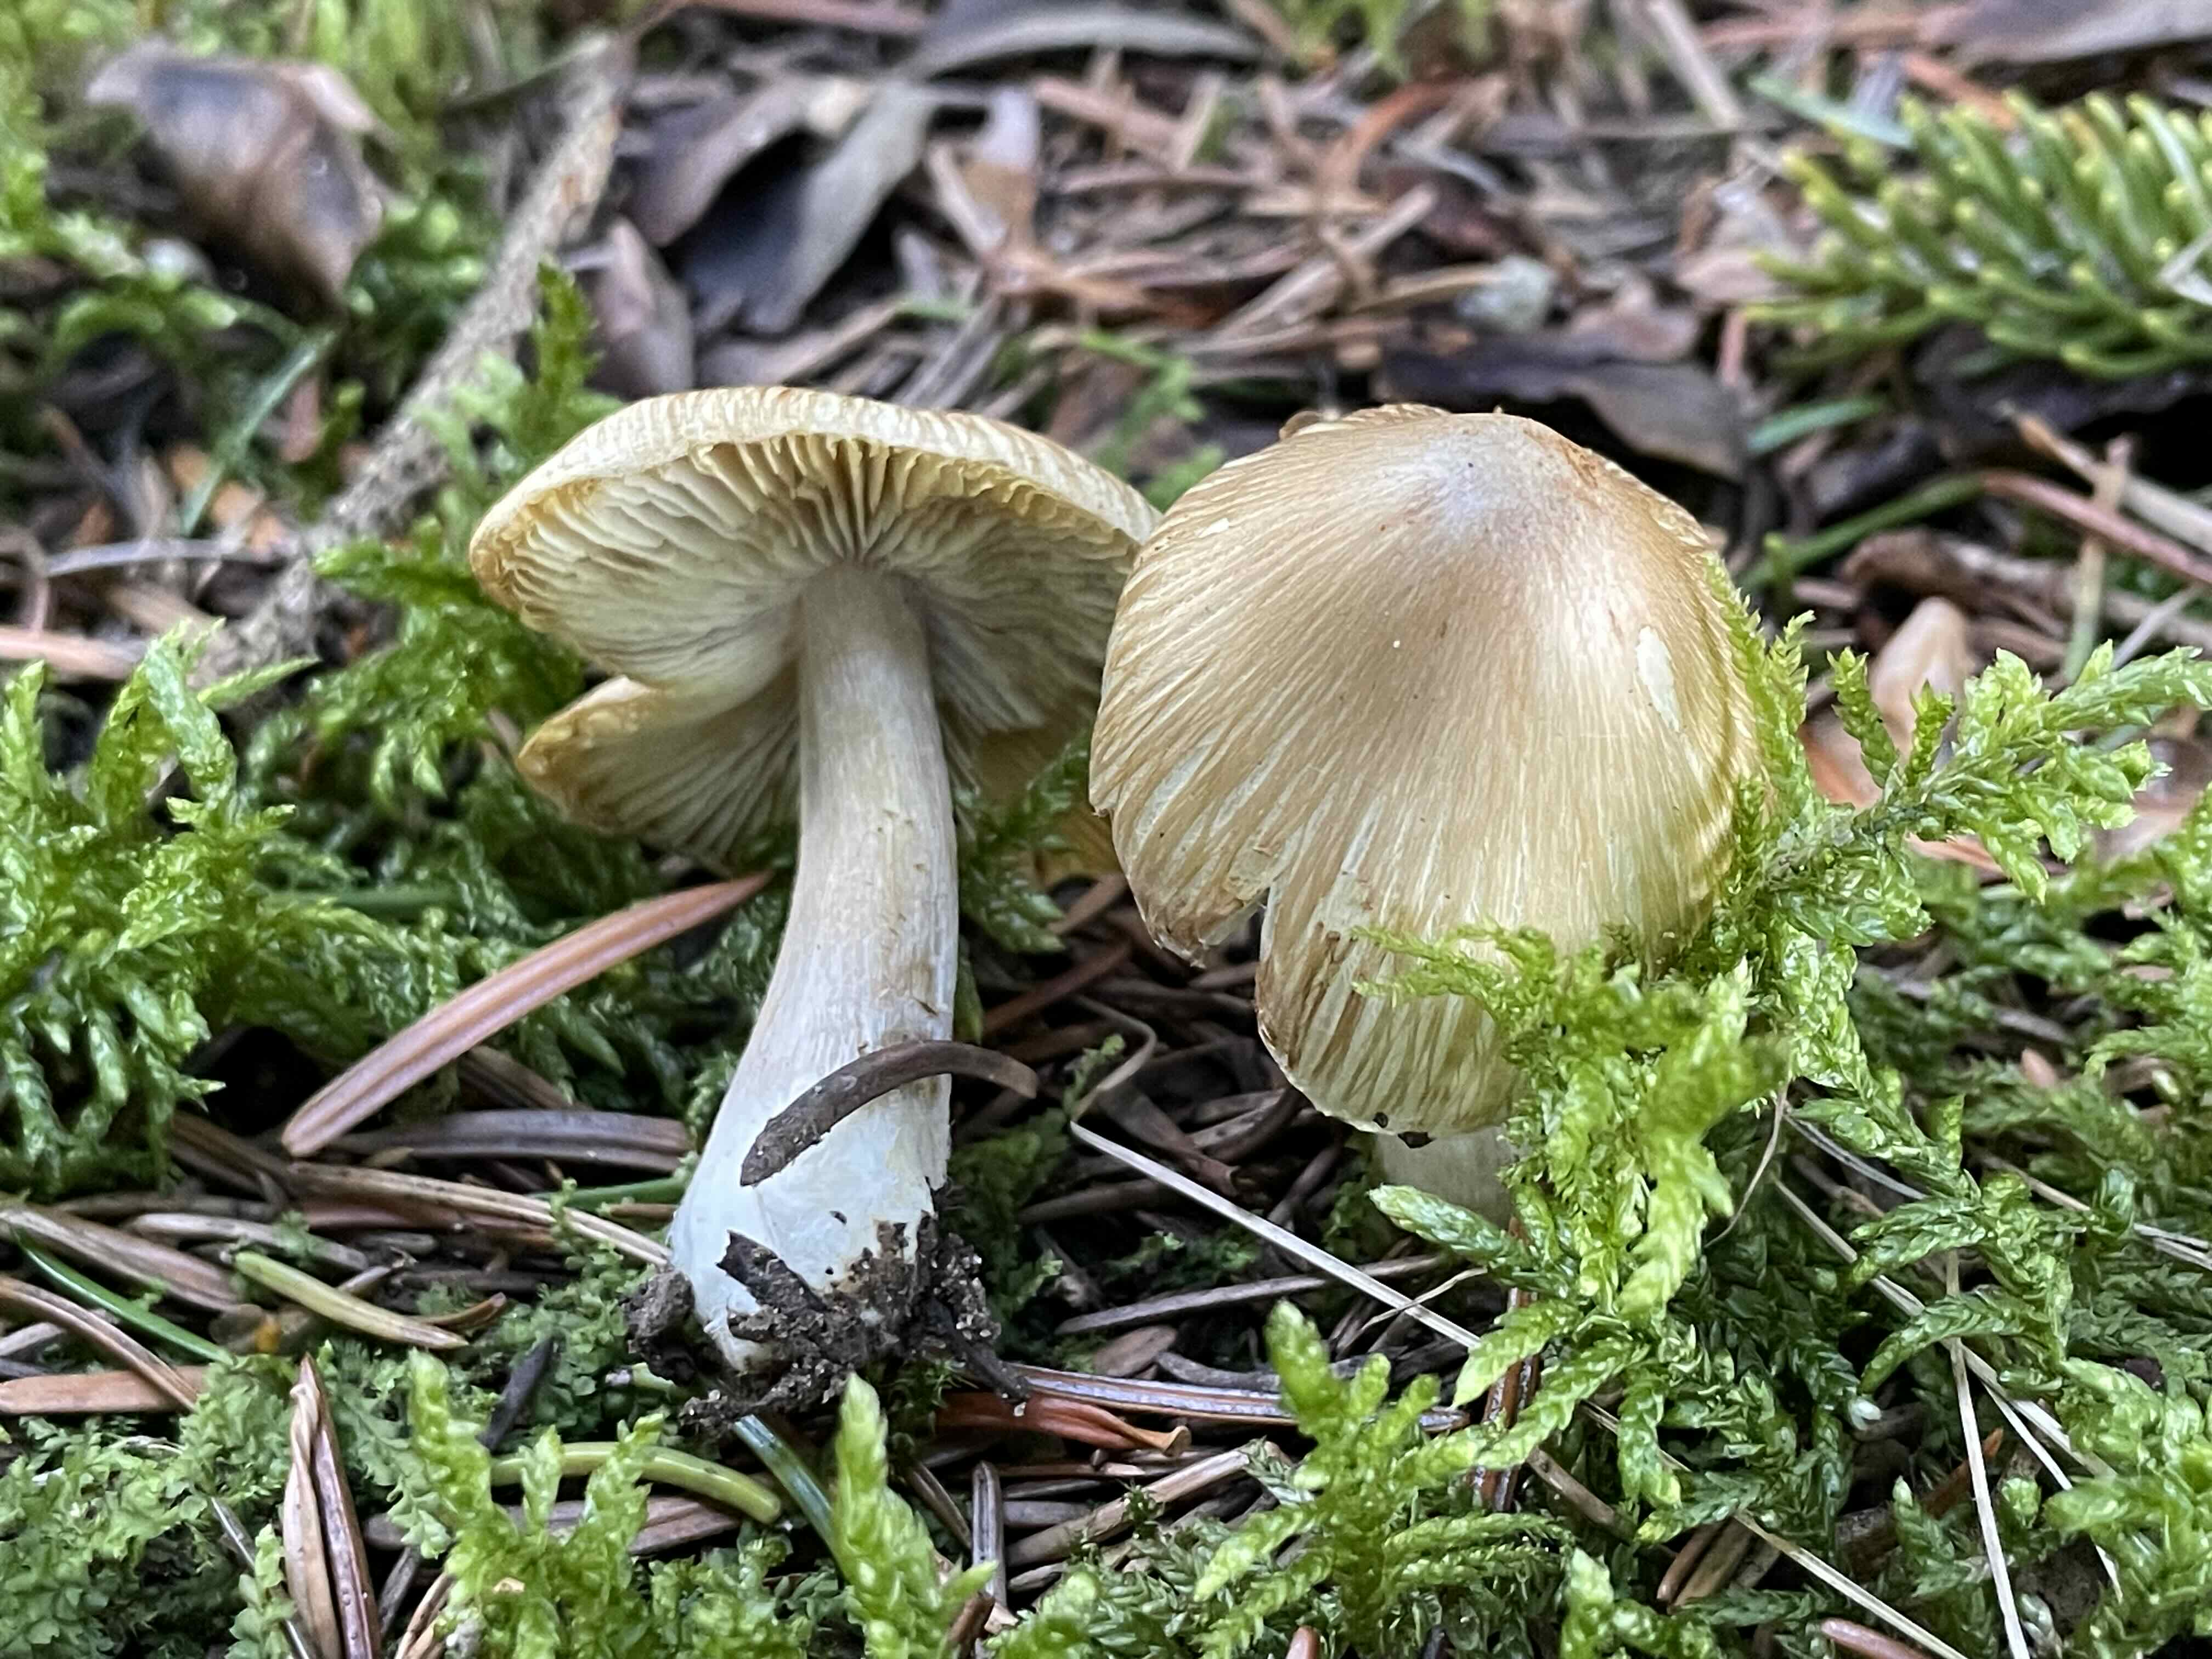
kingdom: Fungi
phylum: Basidiomycota
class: Agaricomycetes
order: Agaricales
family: Inocybaceae
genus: Pseudosperma
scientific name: Pseudosperma
